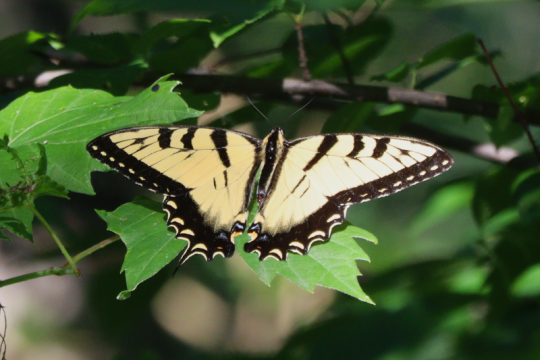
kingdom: Animalia
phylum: Arthropoda
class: Insecta
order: Lepidoptera
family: Papilionidae
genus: Pterourus
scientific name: Pterourus glaucus
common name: Eastern Tiger Swallowtail
